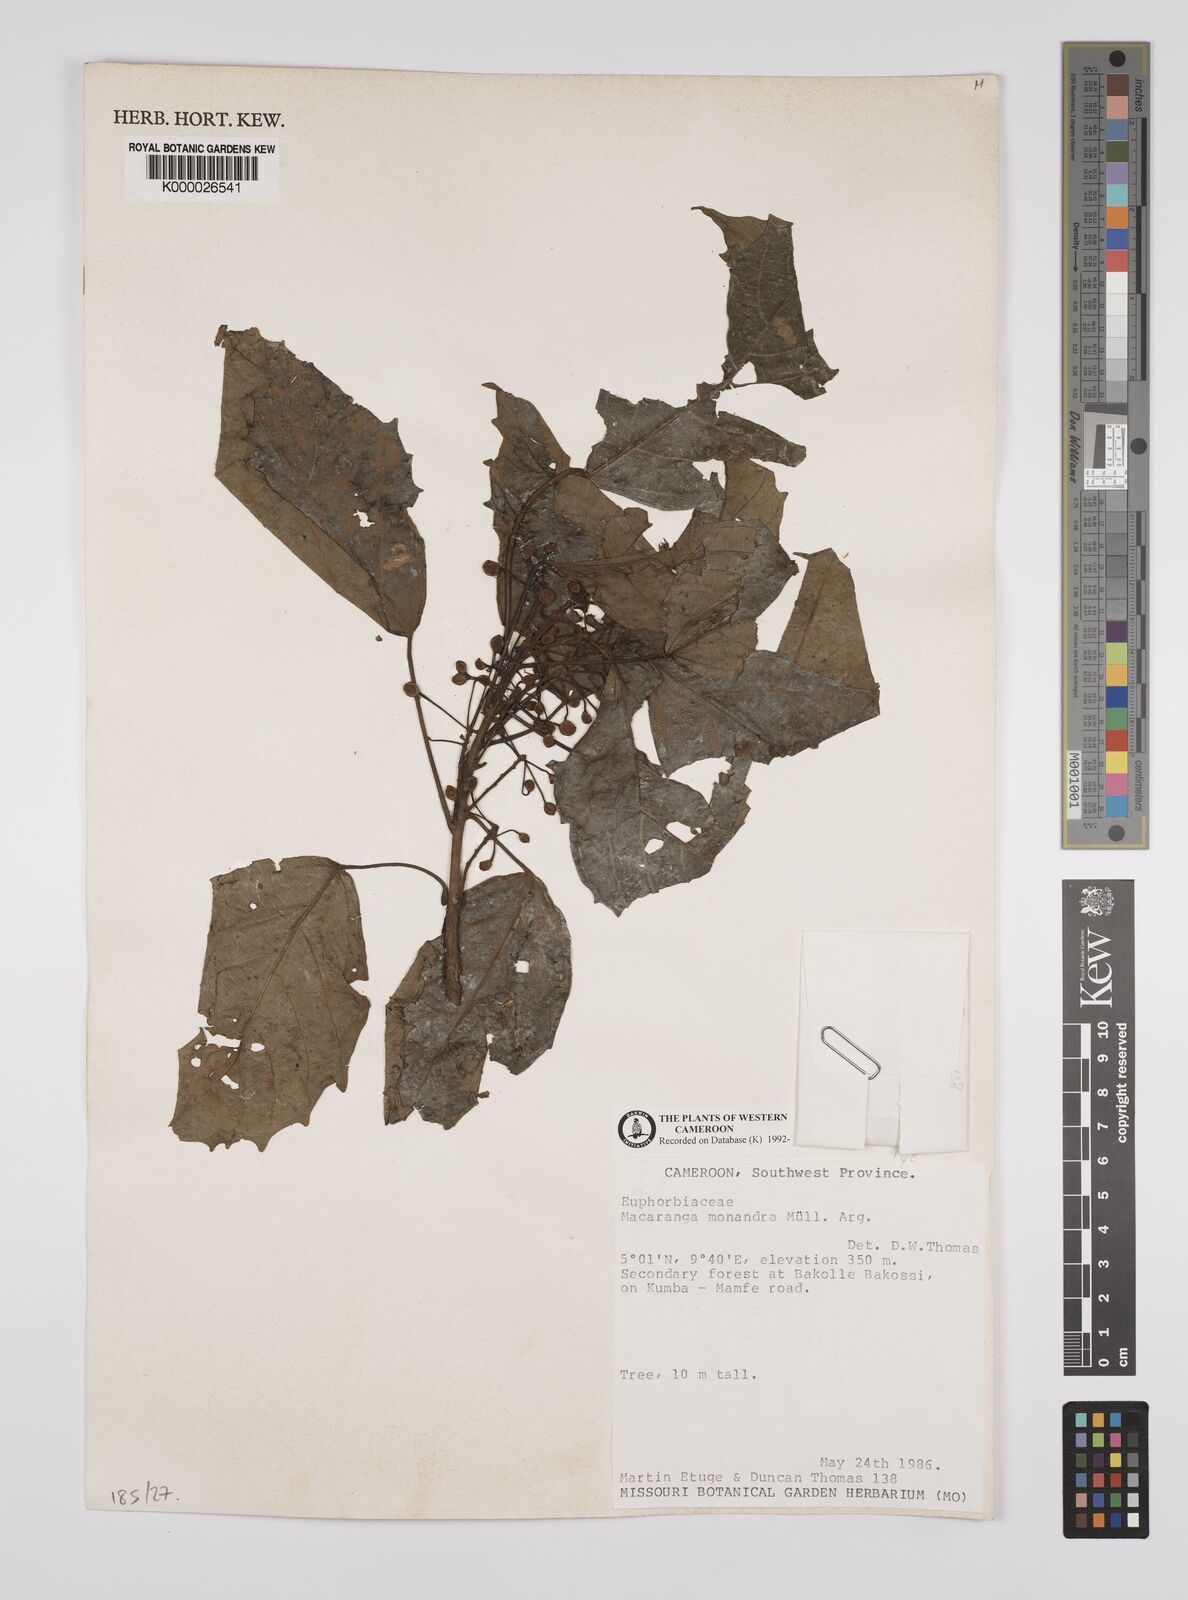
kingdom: Plantae
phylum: Tracheophyta
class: Magnoliopsida
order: Malpighiales
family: Euphorbiaceae
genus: Macaranga
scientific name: Macaranga
